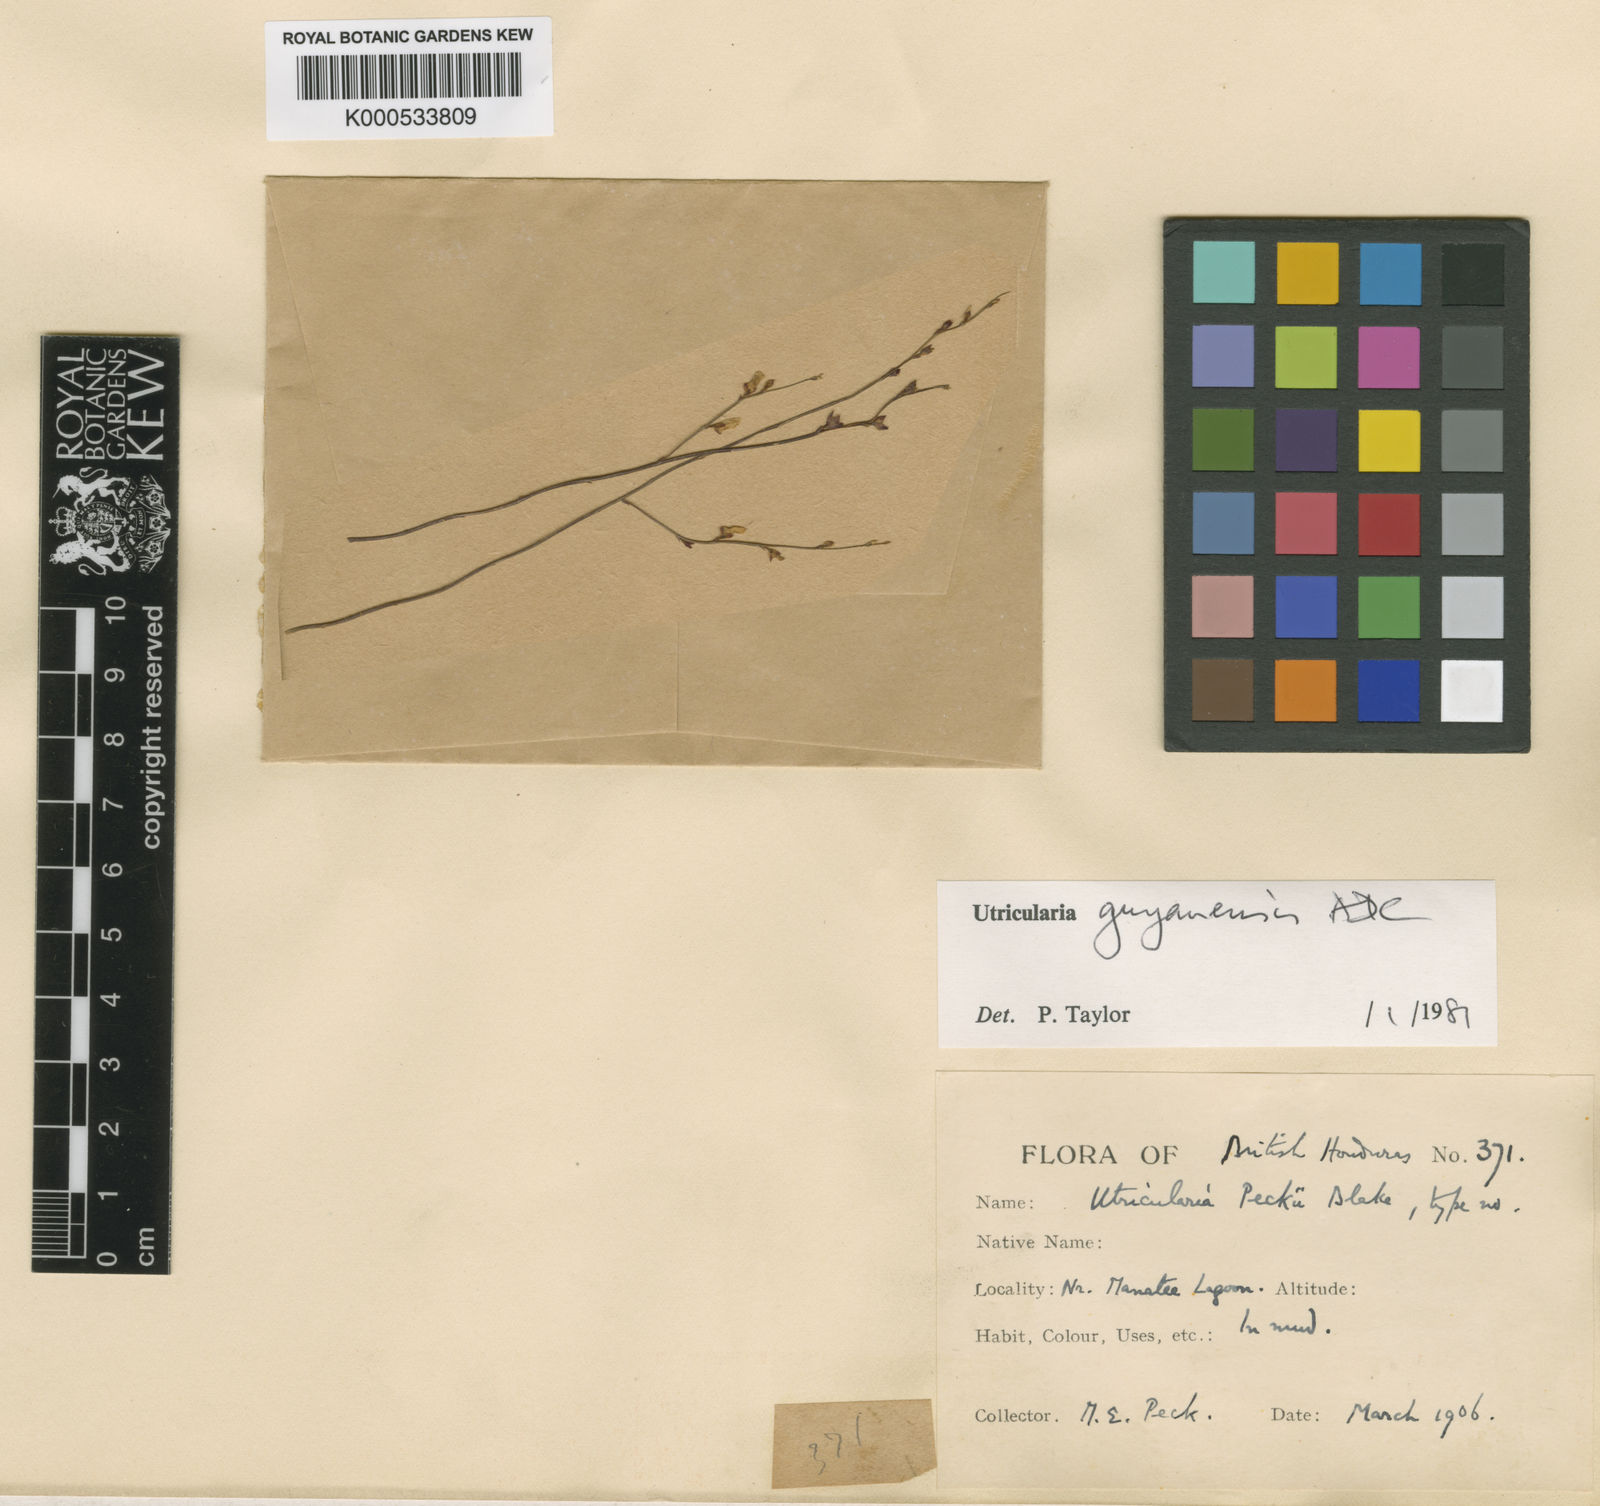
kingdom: Plantae
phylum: Tracheophyta
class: Magnoliopsida
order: Lamiales
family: Lentibulariaceae
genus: Utricularia
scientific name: Utricularia guyanensis
